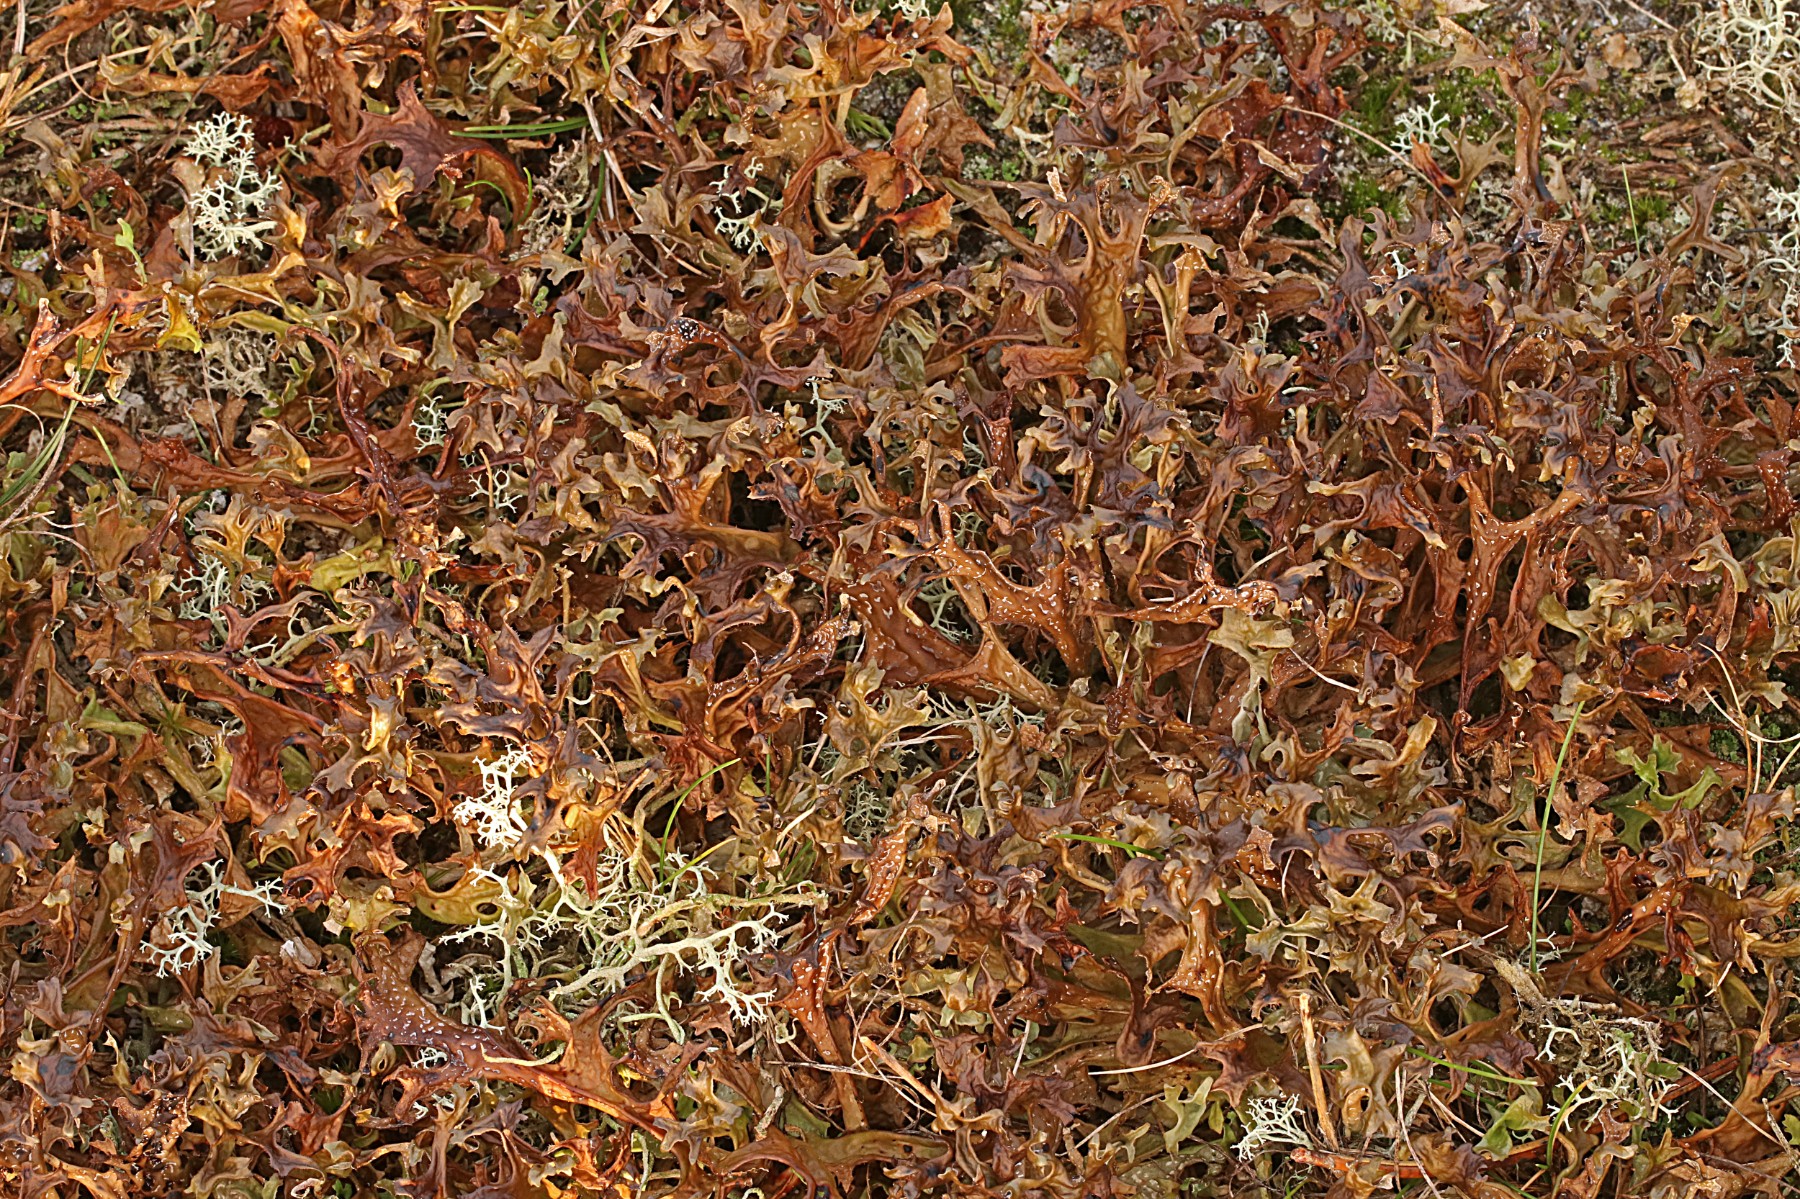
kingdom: Fungi
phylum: Ascomycota
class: Lecanoromycetes
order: Lecanorales
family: Parmeliaceae
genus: Cetraria
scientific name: Cetraria islandica
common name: islandsk kruslav
